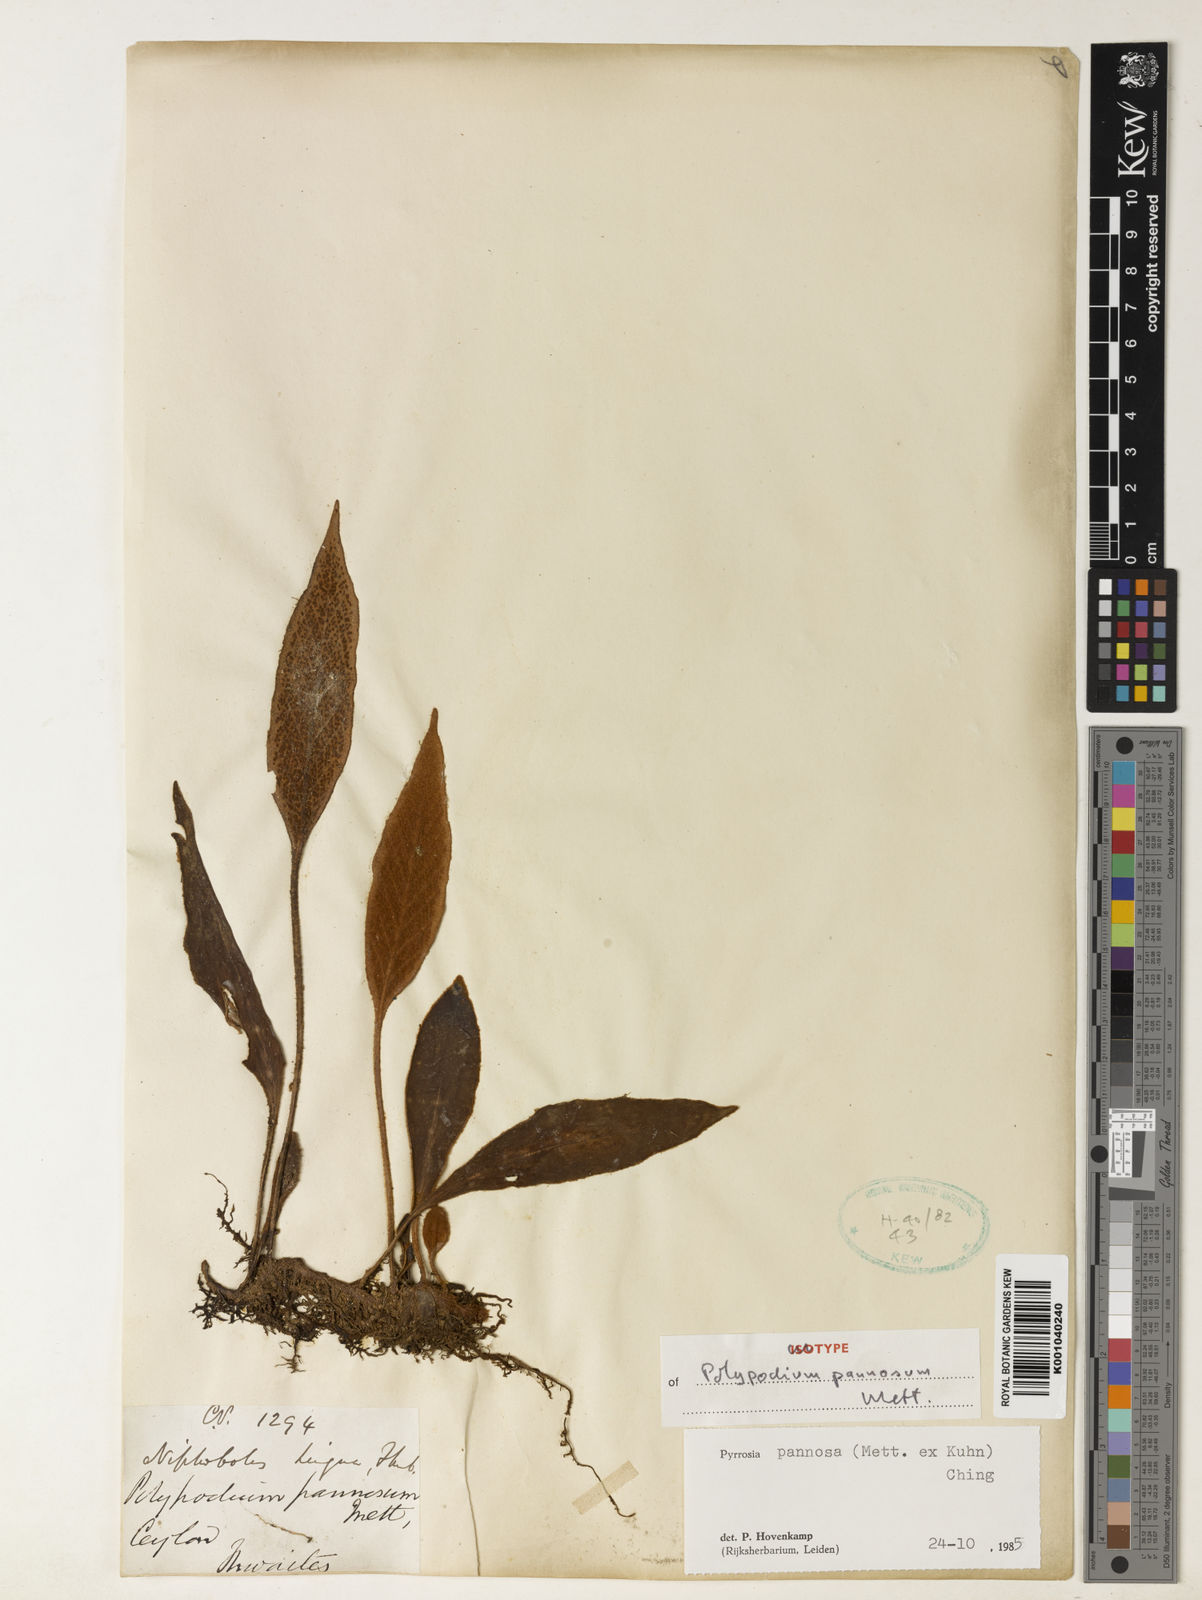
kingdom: Plantae
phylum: Tracheophyta
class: Polypodiopsida
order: Polypodiales
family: Polypodiaceae
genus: Pyrrosia
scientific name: Pyrrosia pannosa
